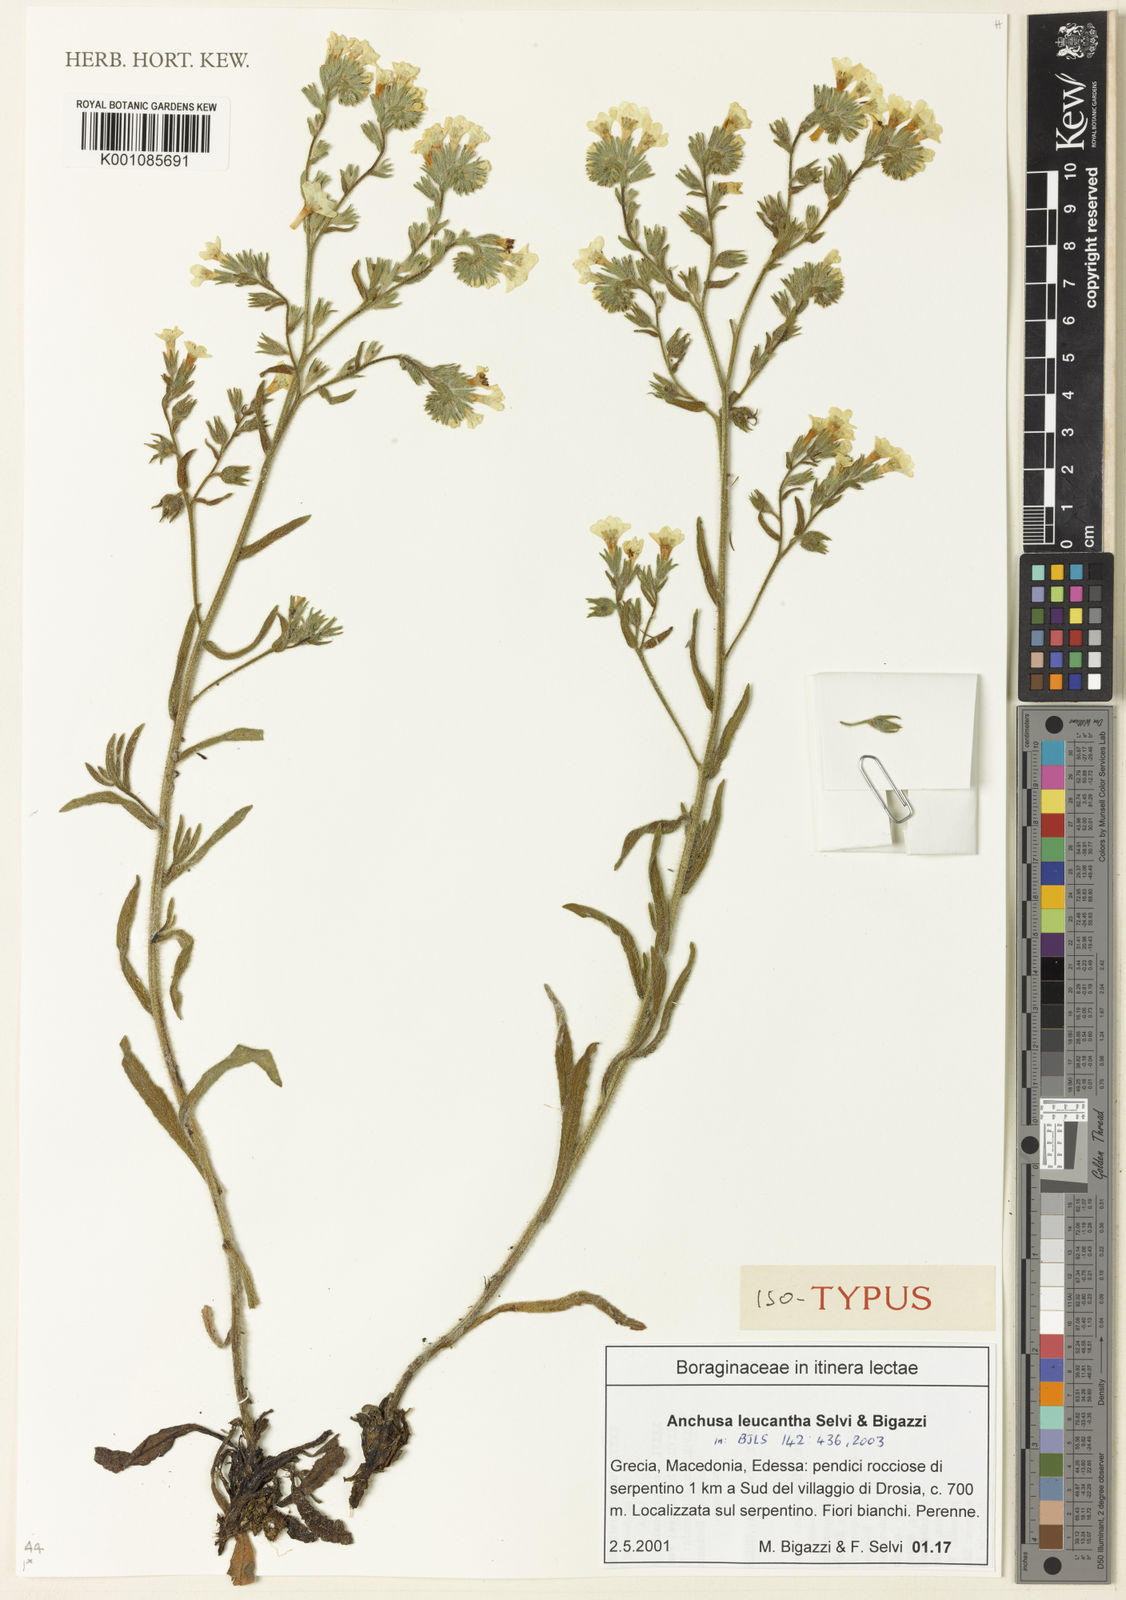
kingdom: Plantae
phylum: Tracheophyta
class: Magnoliopsida
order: Boraginales
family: Boraginaceae
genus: Anchusa
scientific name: Anchusa officinalis
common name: Alkanet
